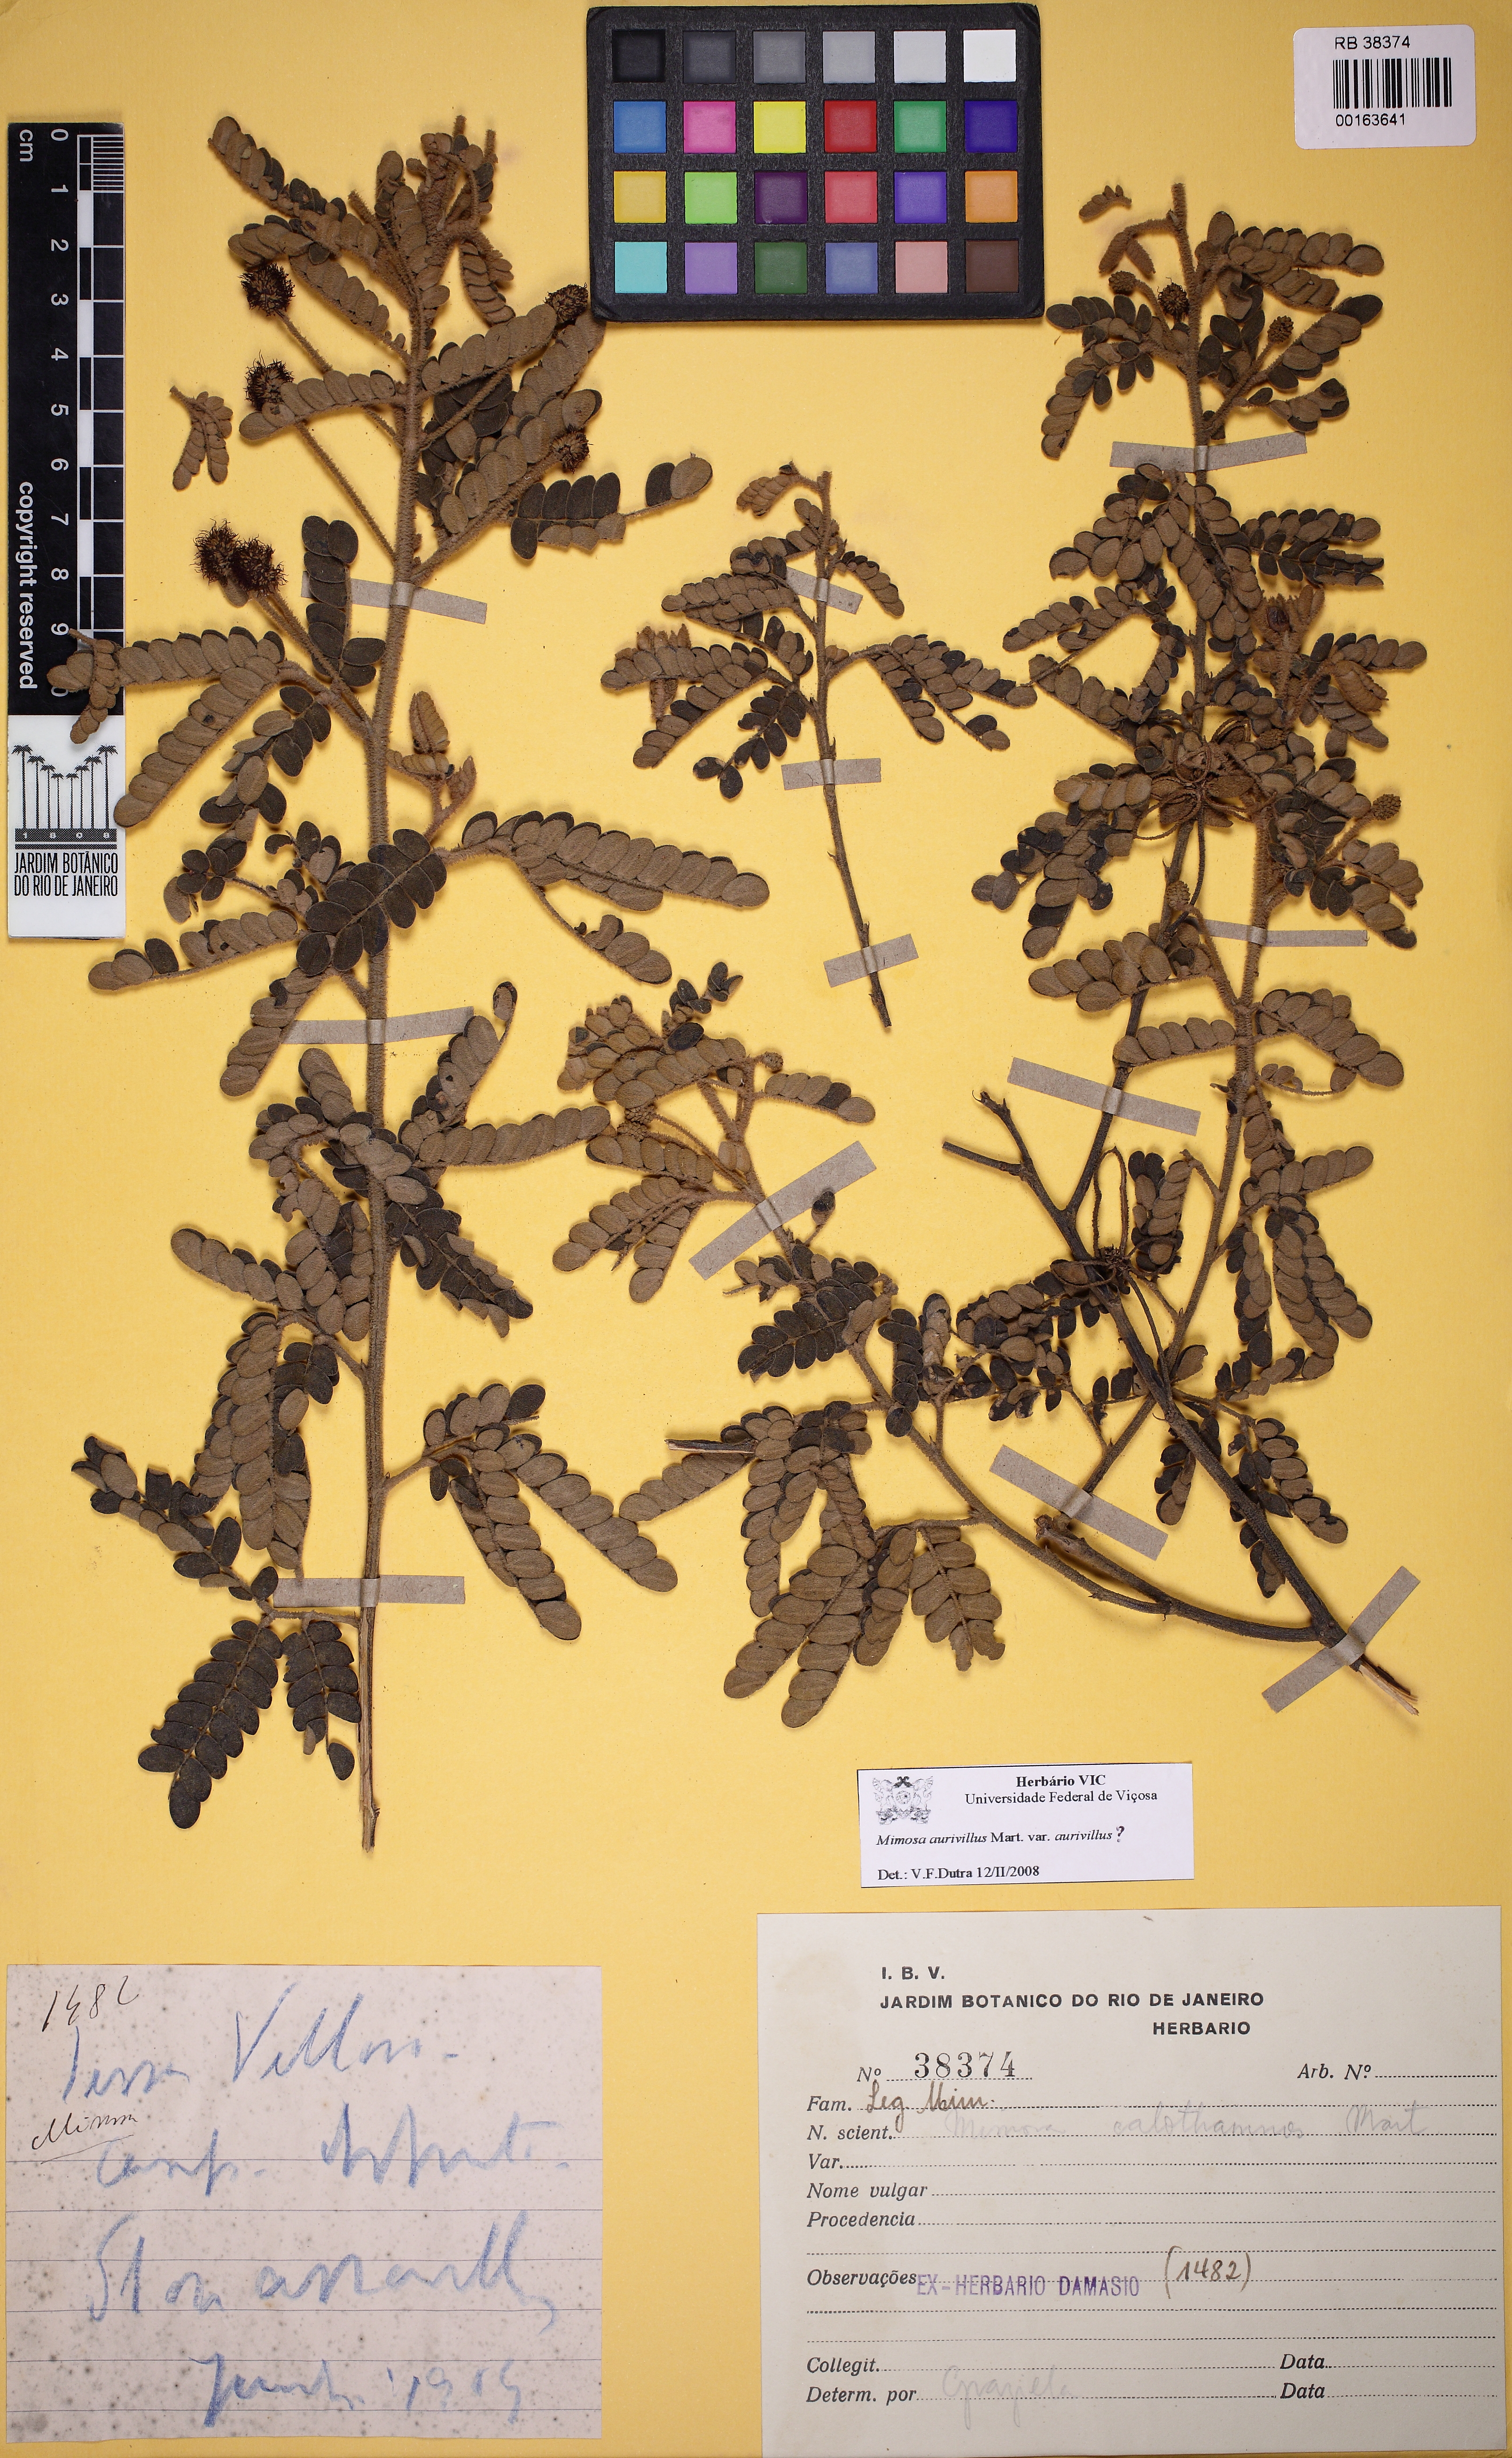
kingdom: Plantae
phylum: Tracheophyta
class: Magnoliopsida
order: Fabales
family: Fabaceae
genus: Mimosa
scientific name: Mimosa aurivillus
